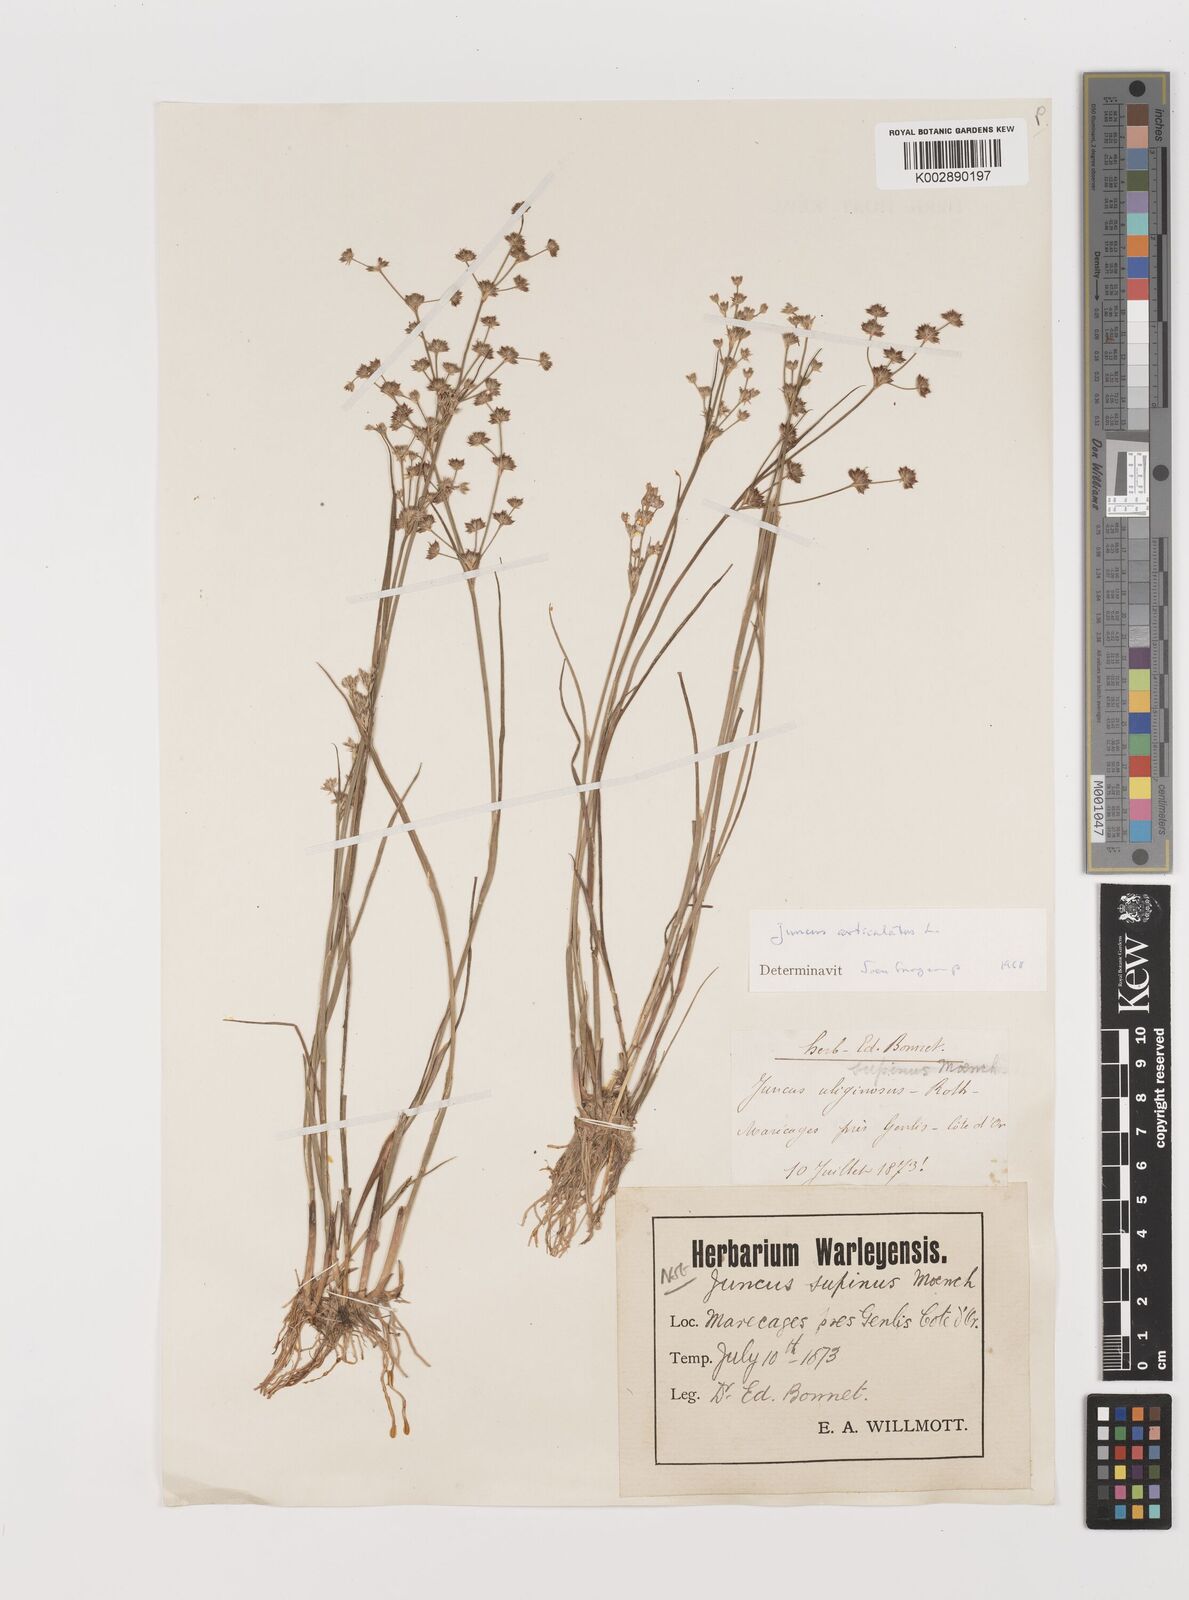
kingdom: Plantae
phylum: Tracheophyta
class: Liliopsida
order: Poales
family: Juncaceae
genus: Juncus
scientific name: Juncus articulatus
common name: Jointed rush
